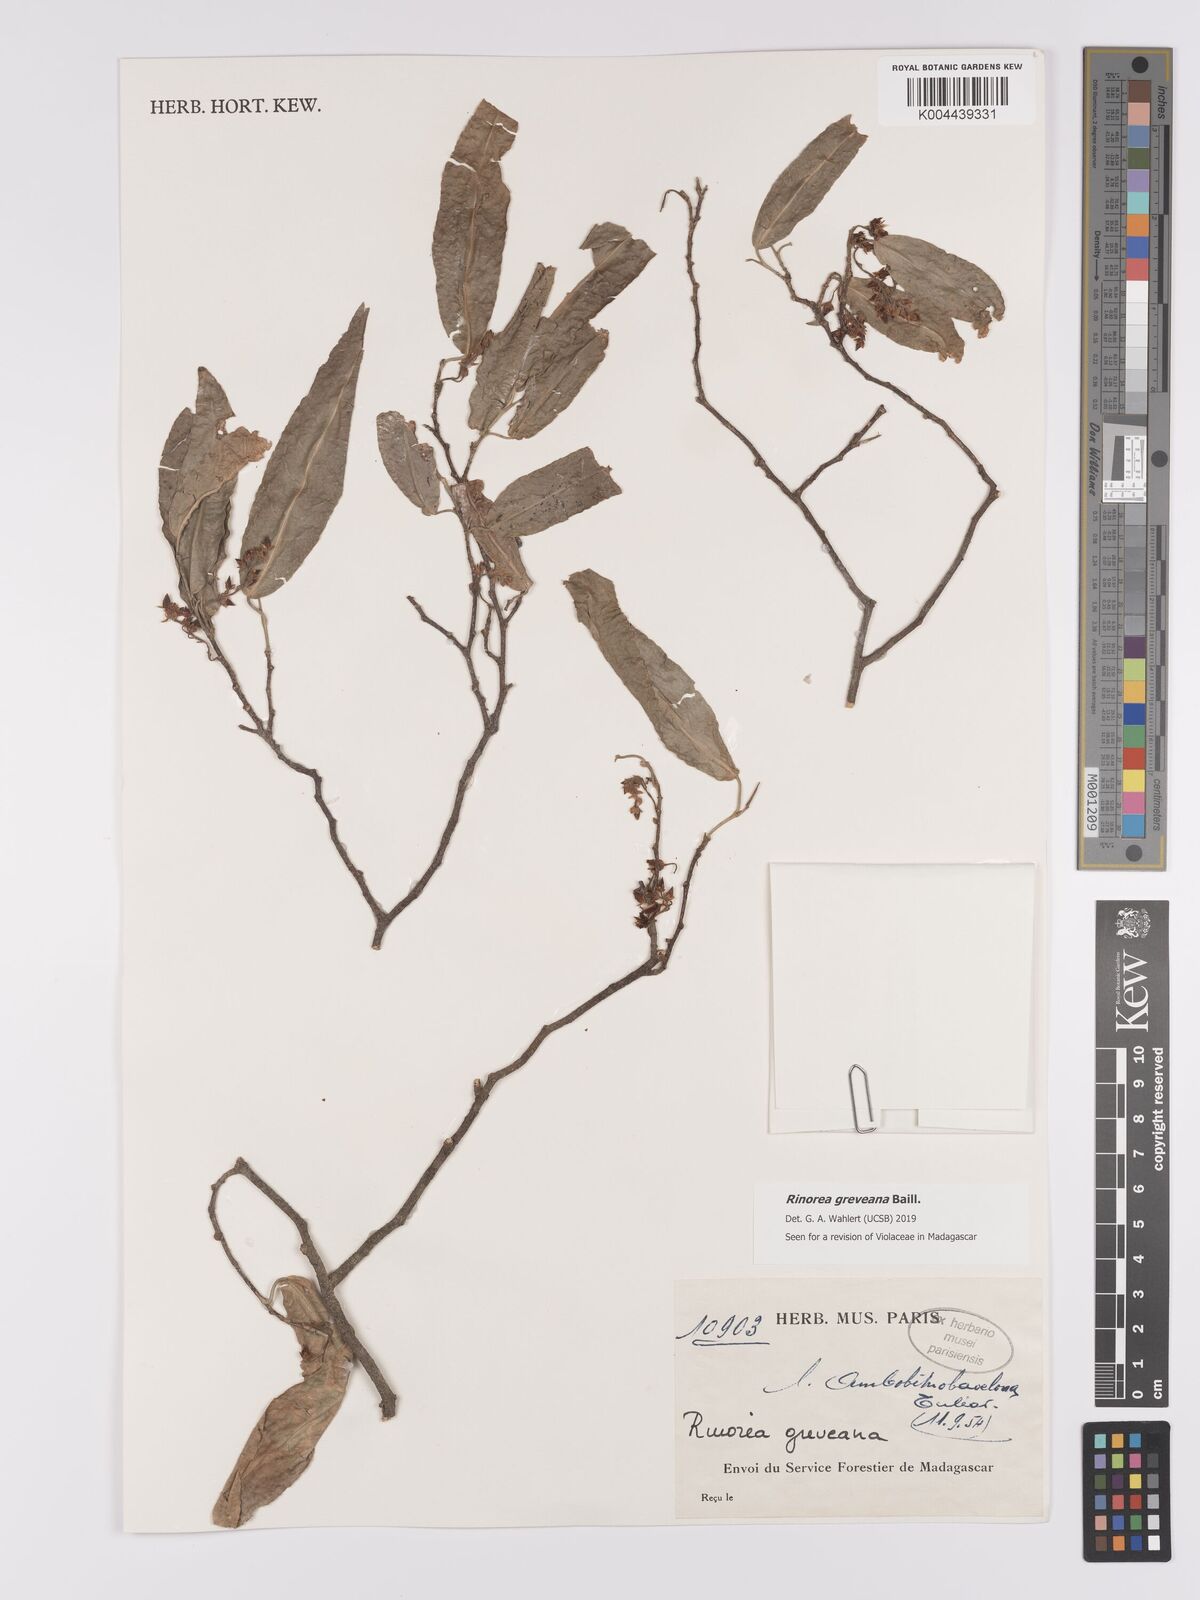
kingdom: Plantae
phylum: Tracheophyta
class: Magnoliopsida
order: Malpighiales
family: Violaceae
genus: Rinorea
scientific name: Rinorea greveana
